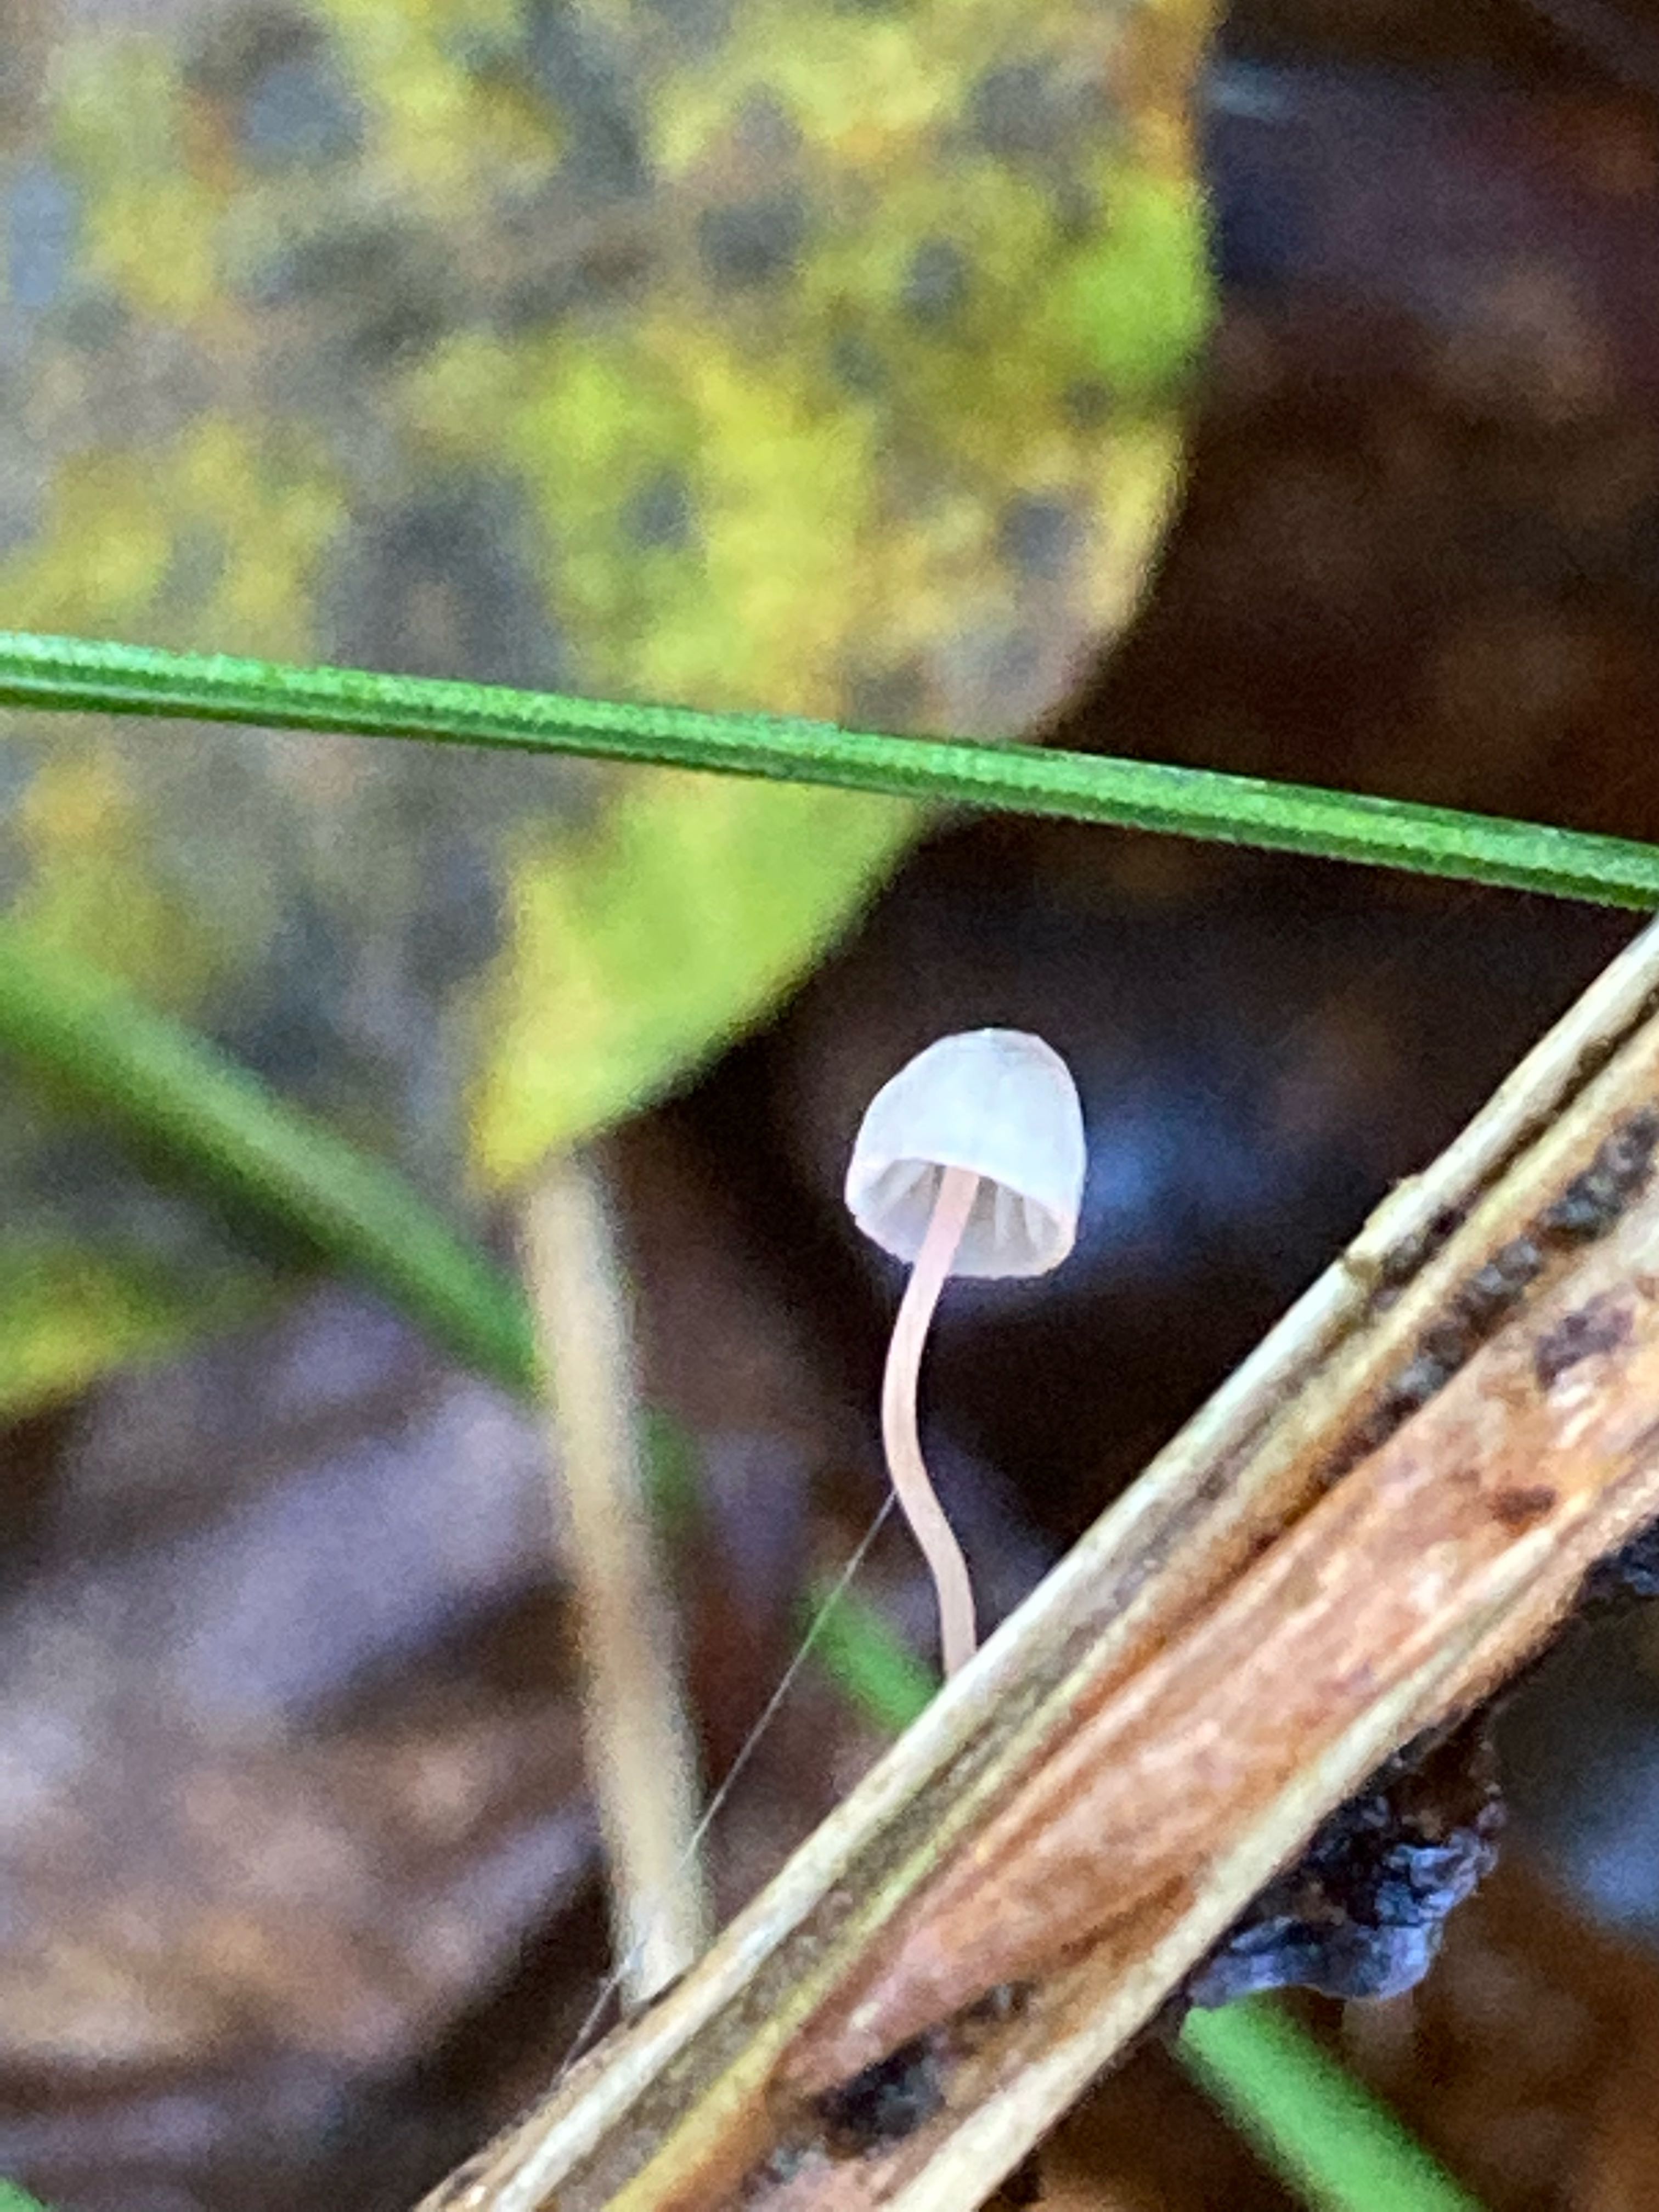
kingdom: Fungi
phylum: Basidiomycota
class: Agaricomycetes
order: Agaricales
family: Mycenaceae
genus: Mycena
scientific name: Mycena pterigena
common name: bregne-huesvamp
